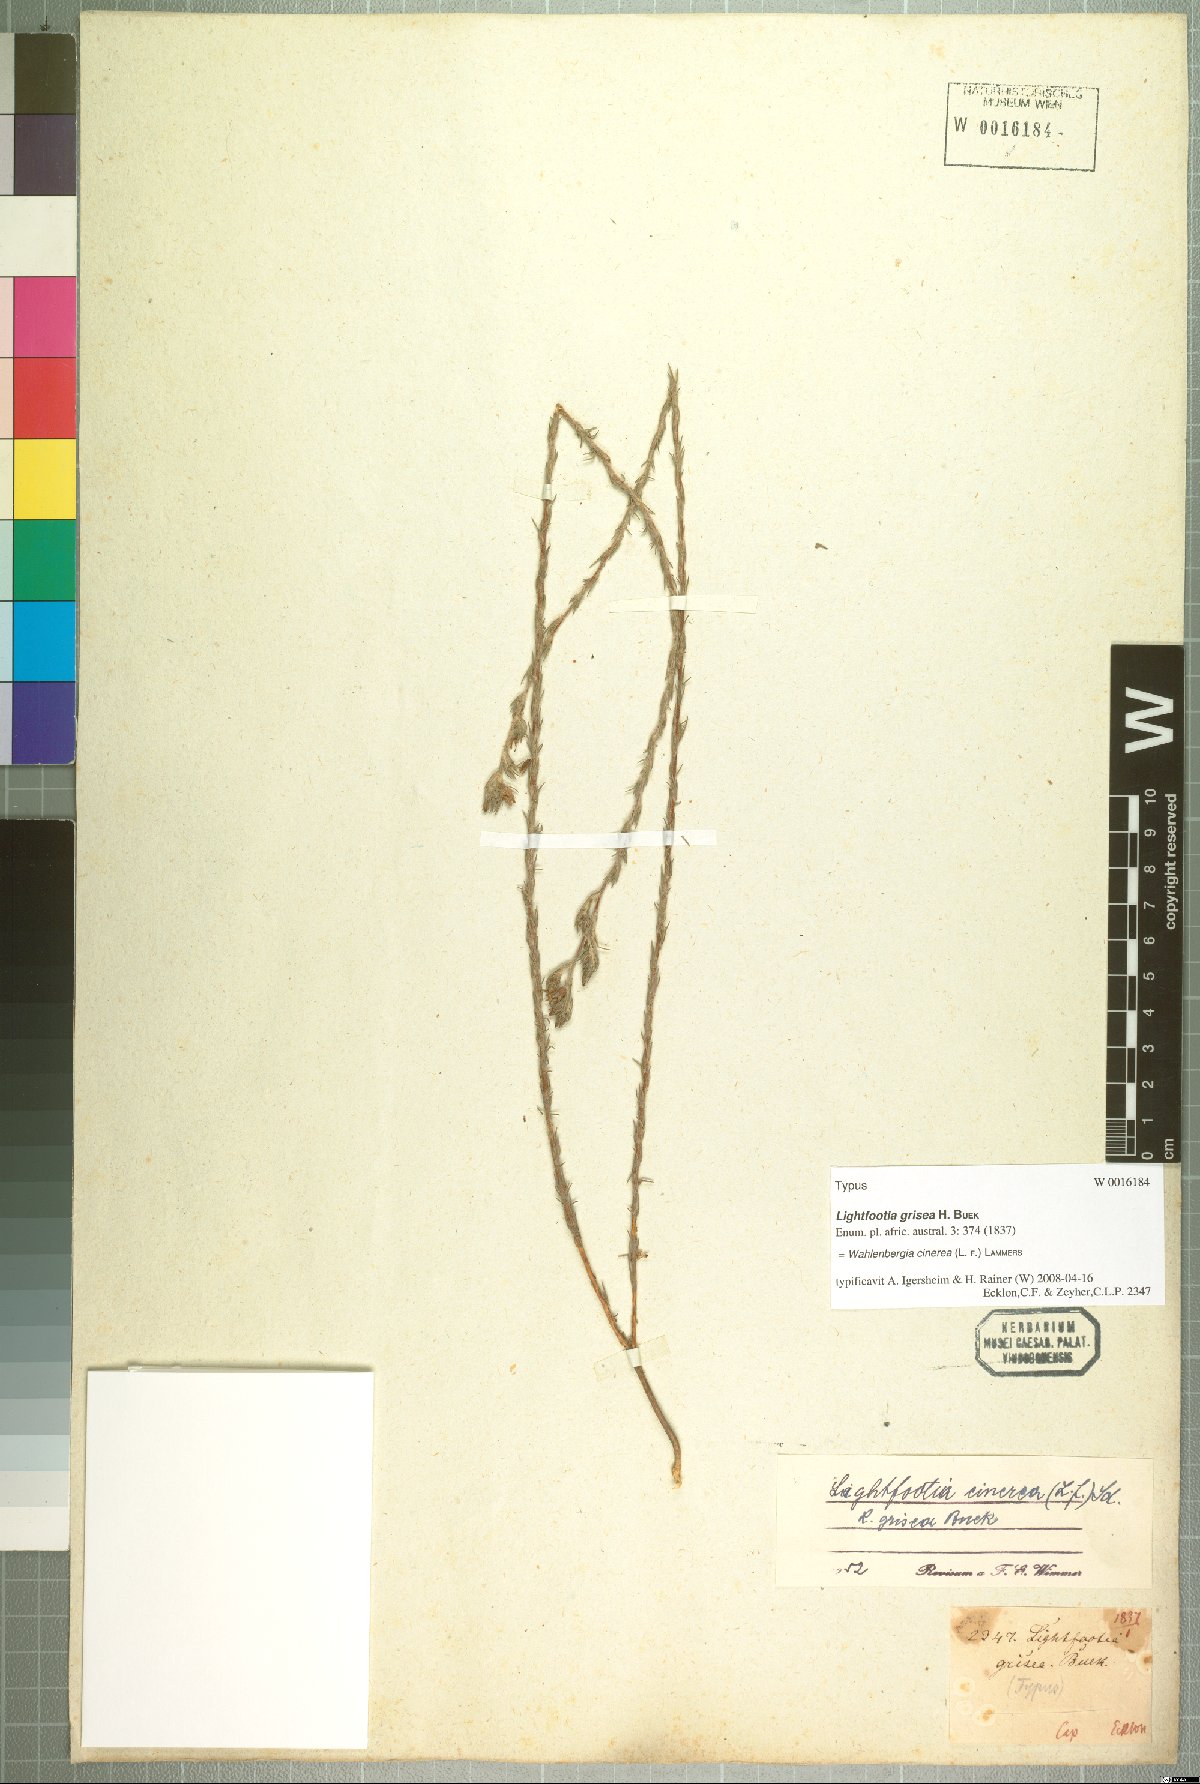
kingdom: Plantae
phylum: Tracheophyta
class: Magnoliopsida
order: Asterales
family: Campanulaceae
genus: Wahlenbergia
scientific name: Wahlenbergia cinerea
